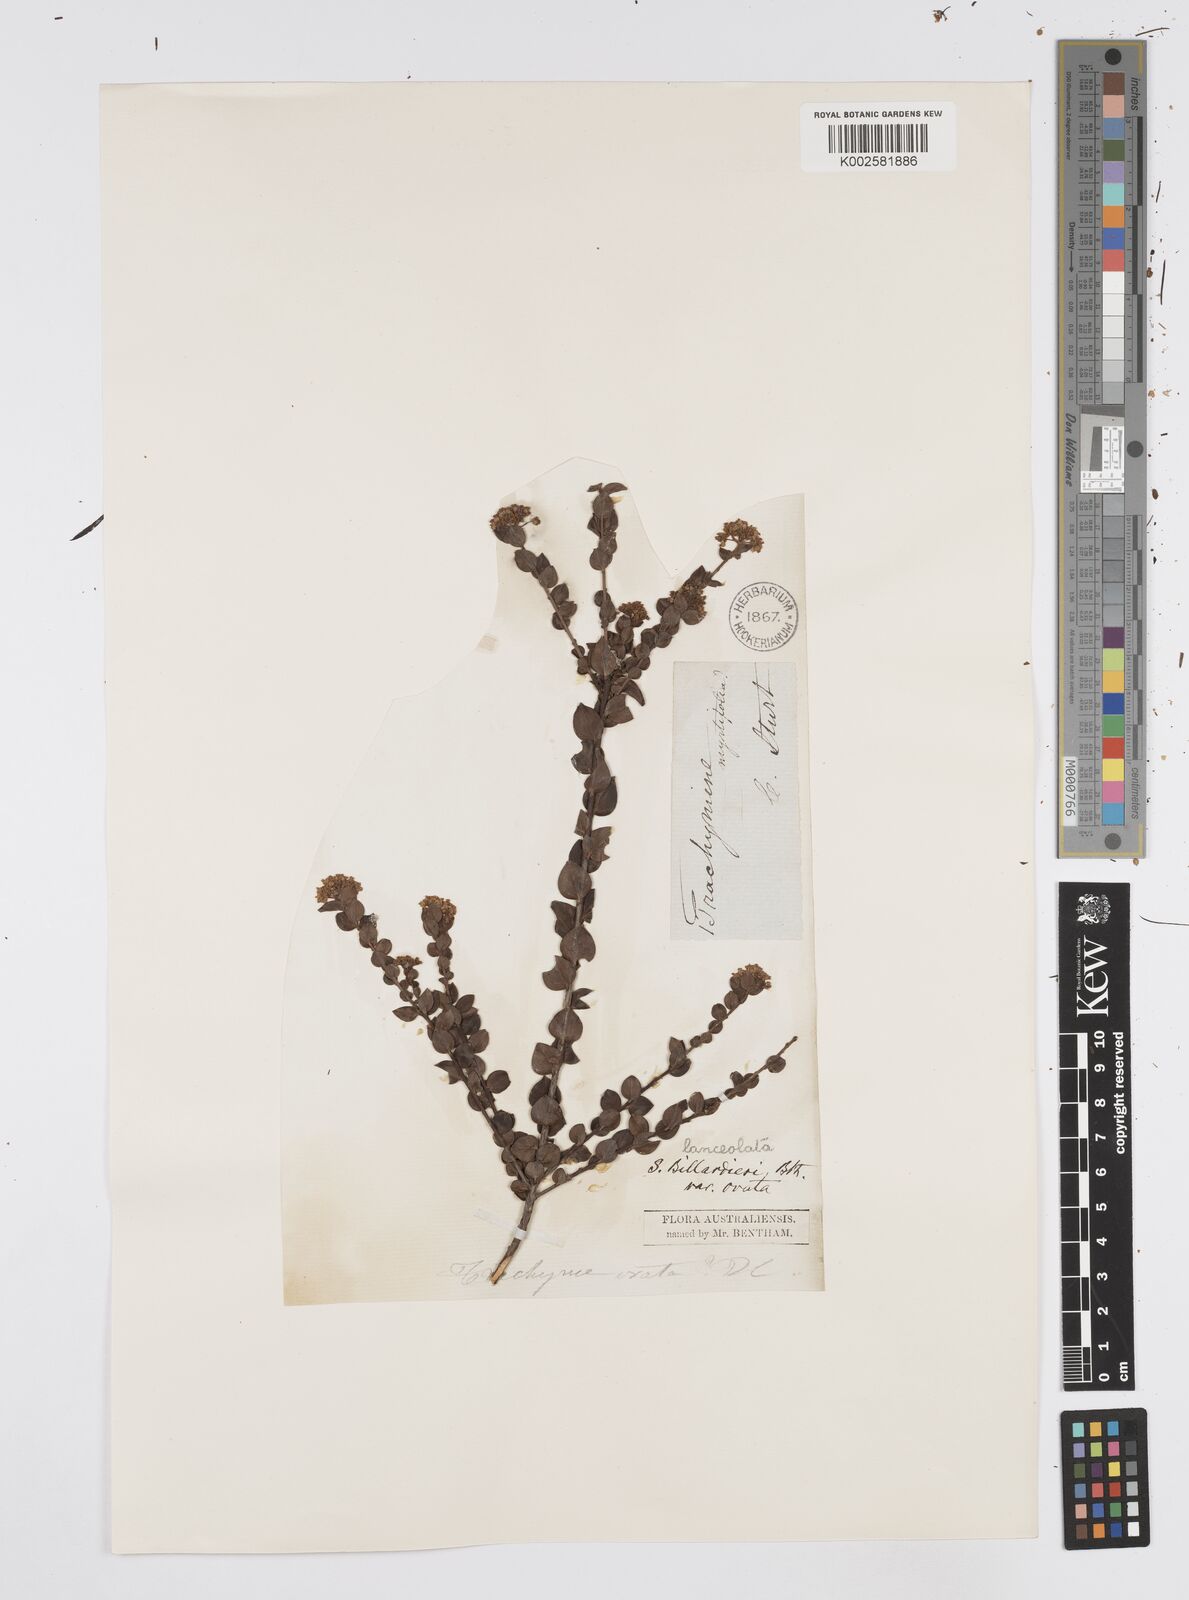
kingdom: Plantae
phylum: Tracheophyta
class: Magnoliopsida
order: Apiales
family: Apiaceae
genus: Platysace
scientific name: Platysace lanceolata
